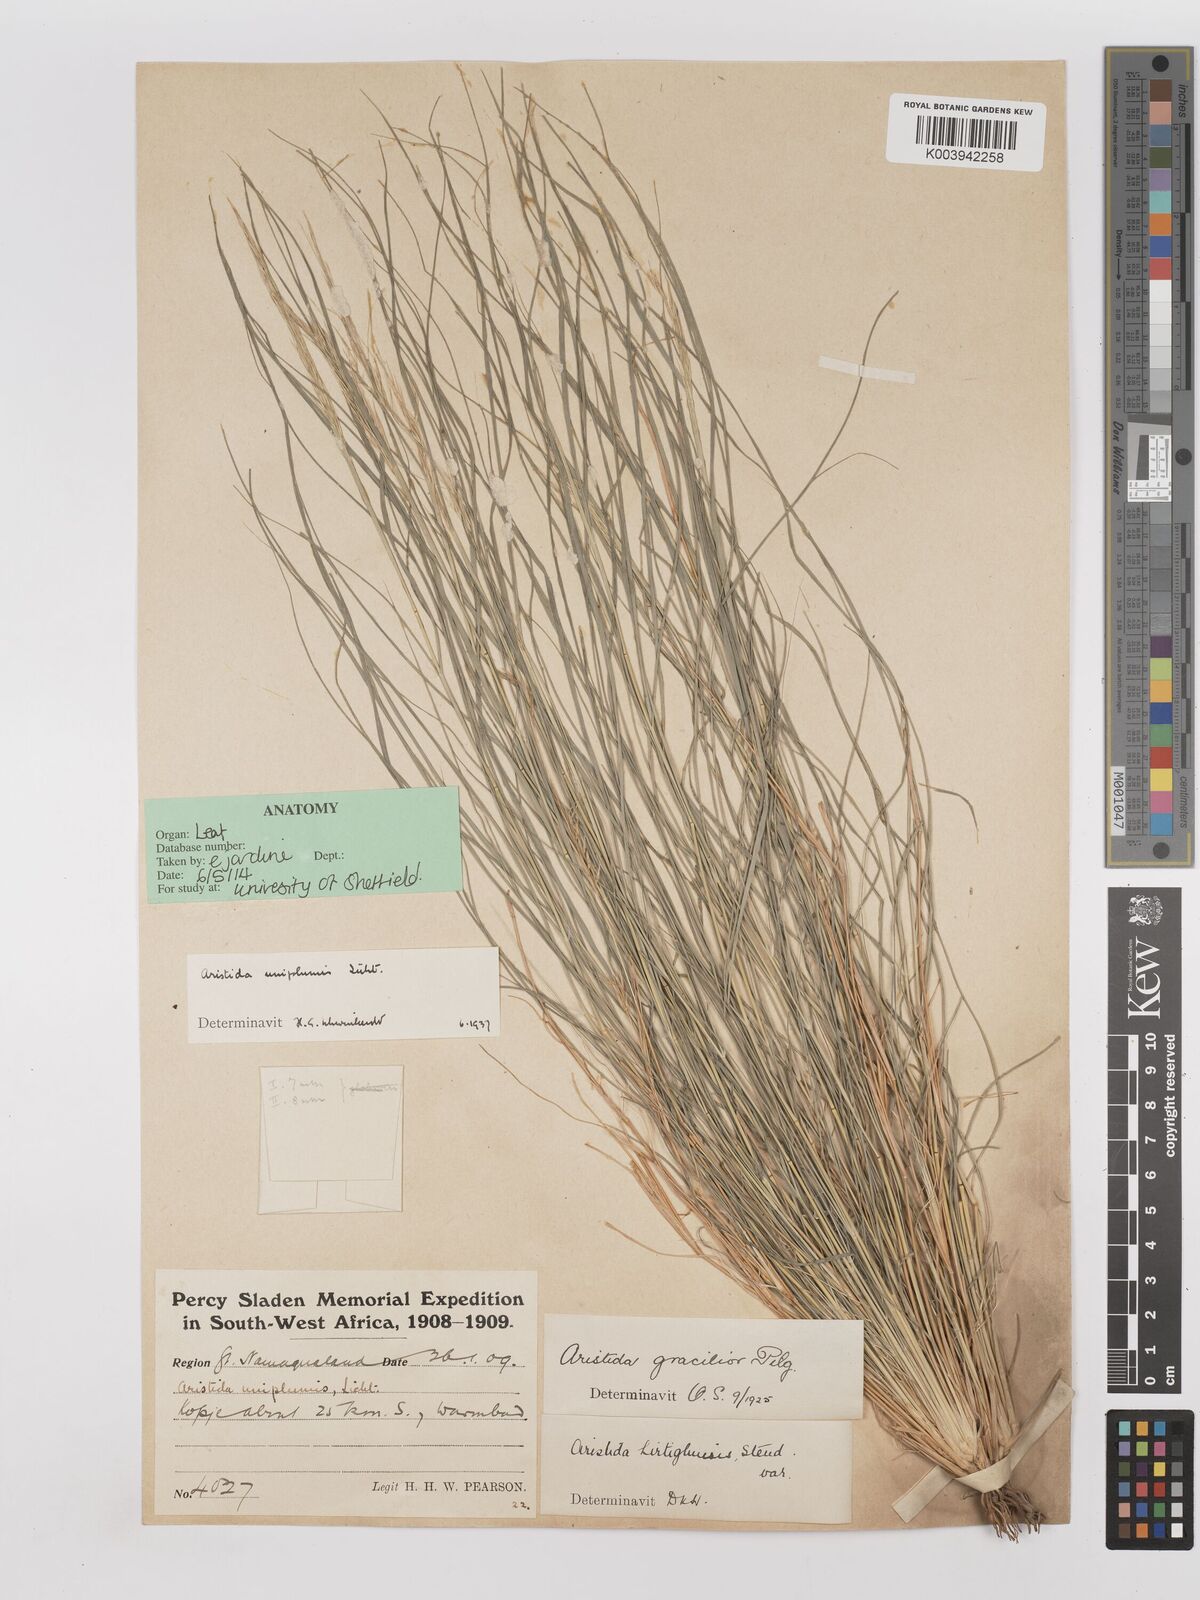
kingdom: Plantae
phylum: Tracheophyta
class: Liliopsida
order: Poales
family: Poaceae
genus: Stipagrostis
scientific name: Stipagrostis uniplumis
